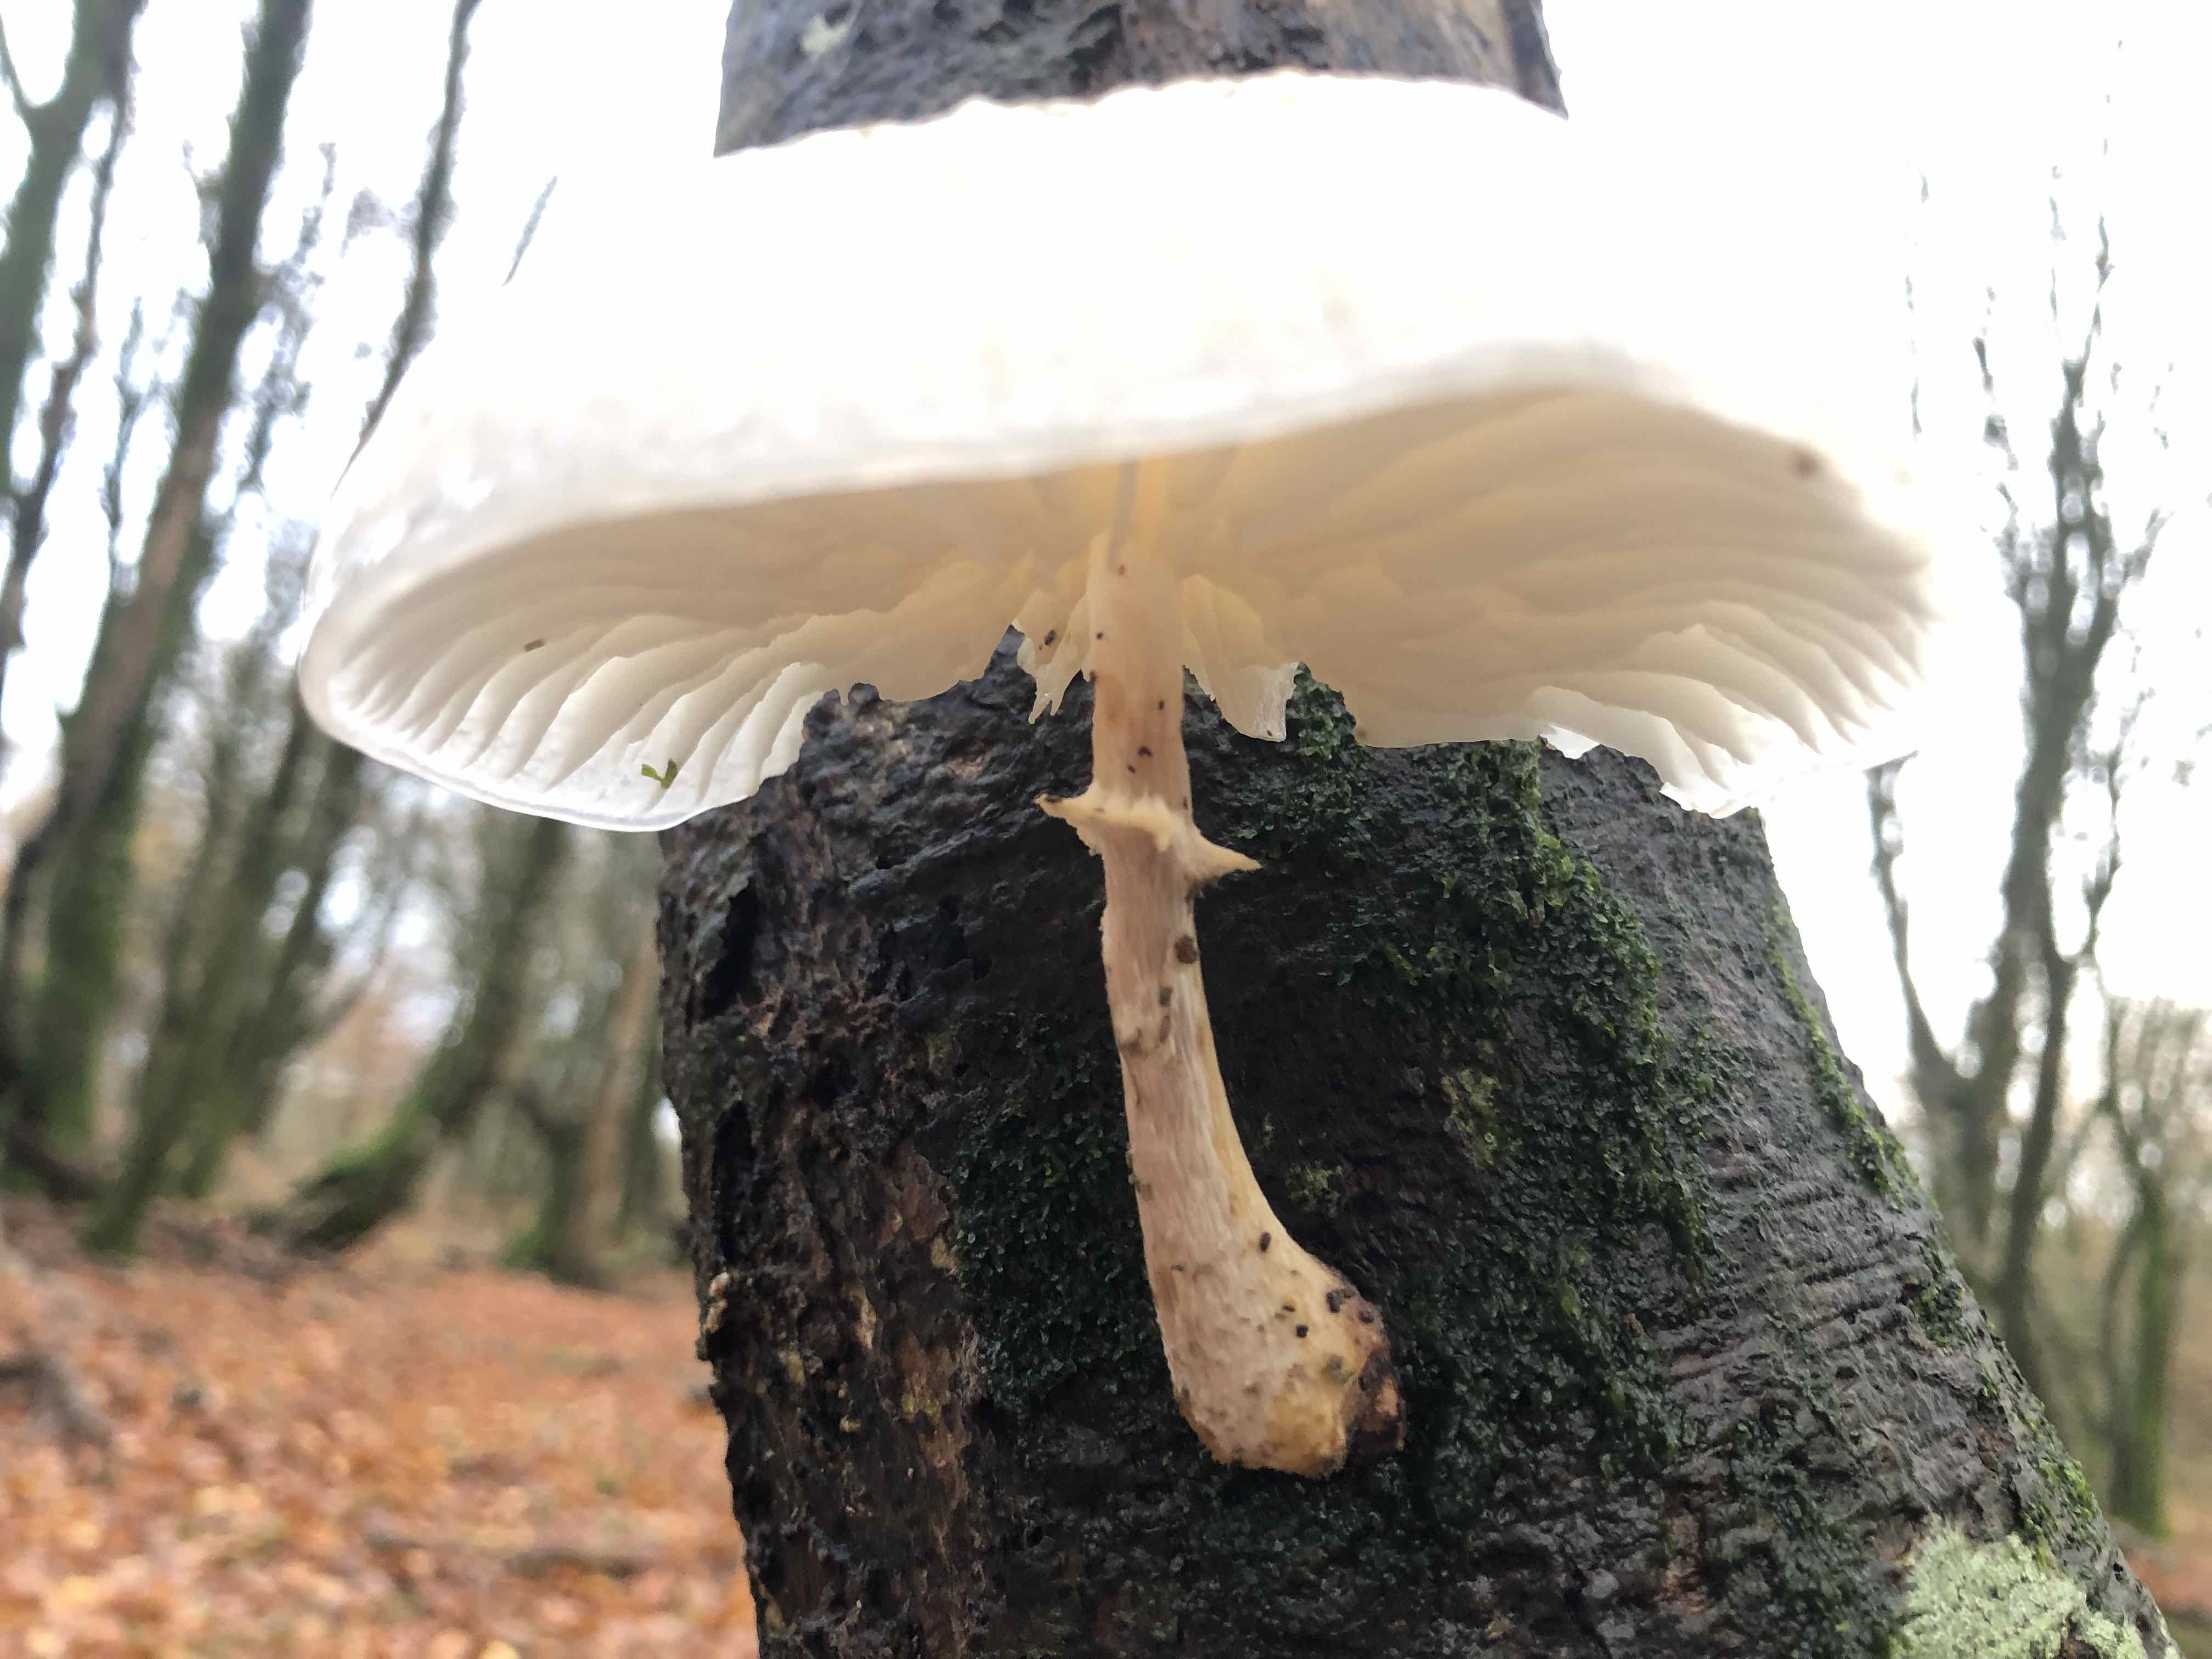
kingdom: Fungi
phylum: Basidiomycota
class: Agaricomycetes
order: Agaricales
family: Physalacriaceae
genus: Mucidula
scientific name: Mucidula mucida
